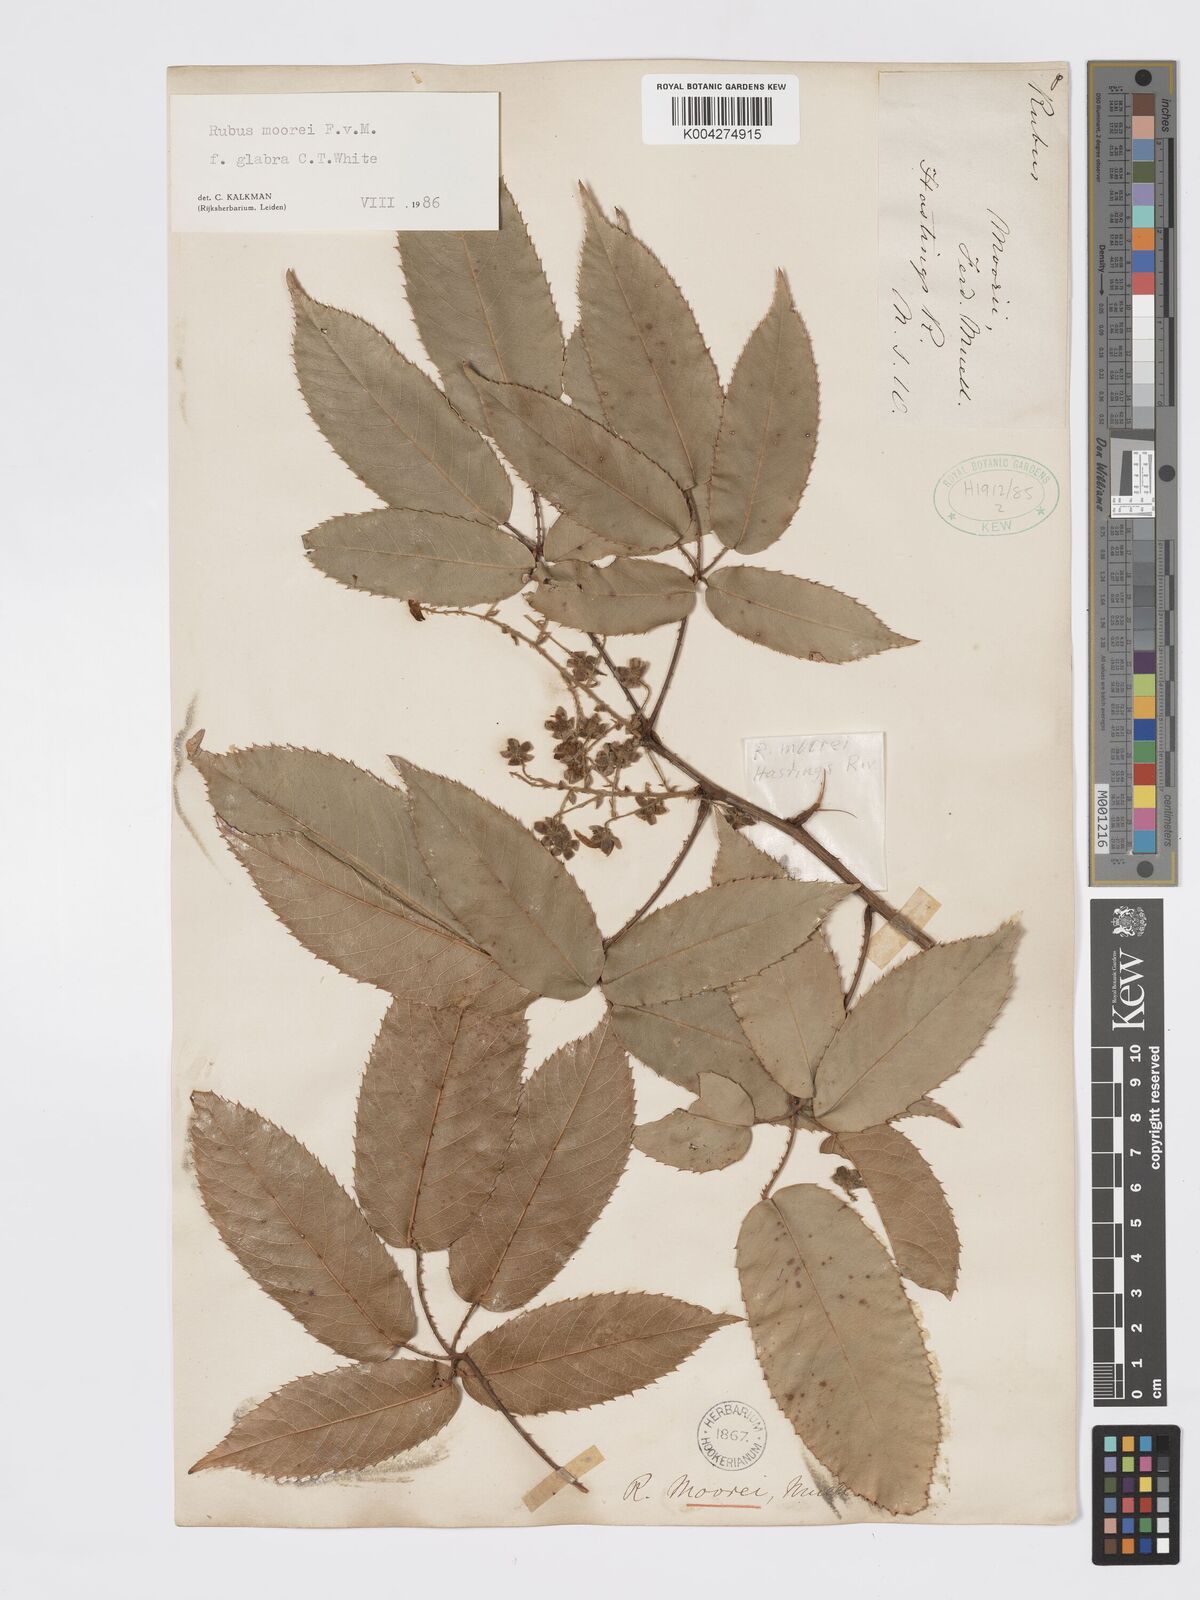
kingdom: Plantae
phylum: Tracheophyta
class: Magnoliopsida
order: Rosales
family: Rosaceae
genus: Rubus
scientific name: Rubus moorei
